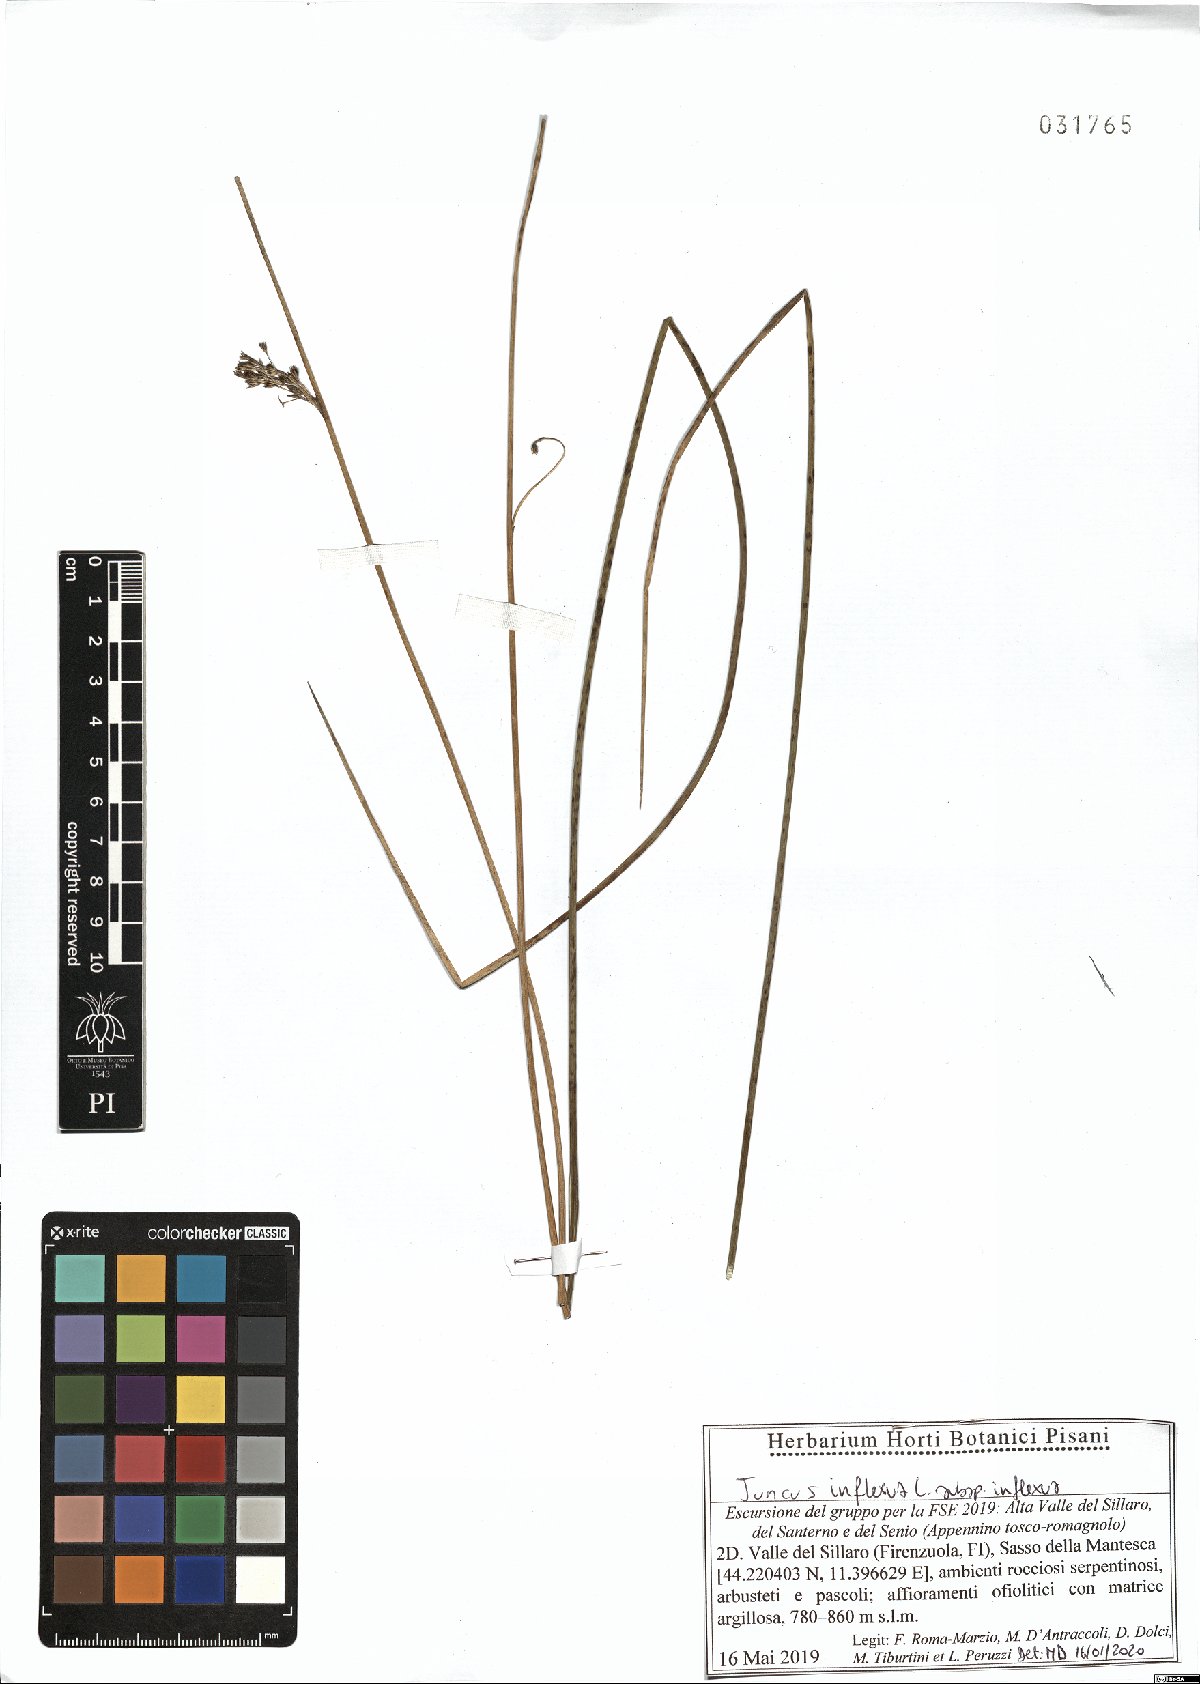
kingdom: Plantae
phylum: Tracheophyta
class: Liliopsida
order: Poales
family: Juncaceae
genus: Juncus
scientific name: Juncus inflexus
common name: Hard rush
